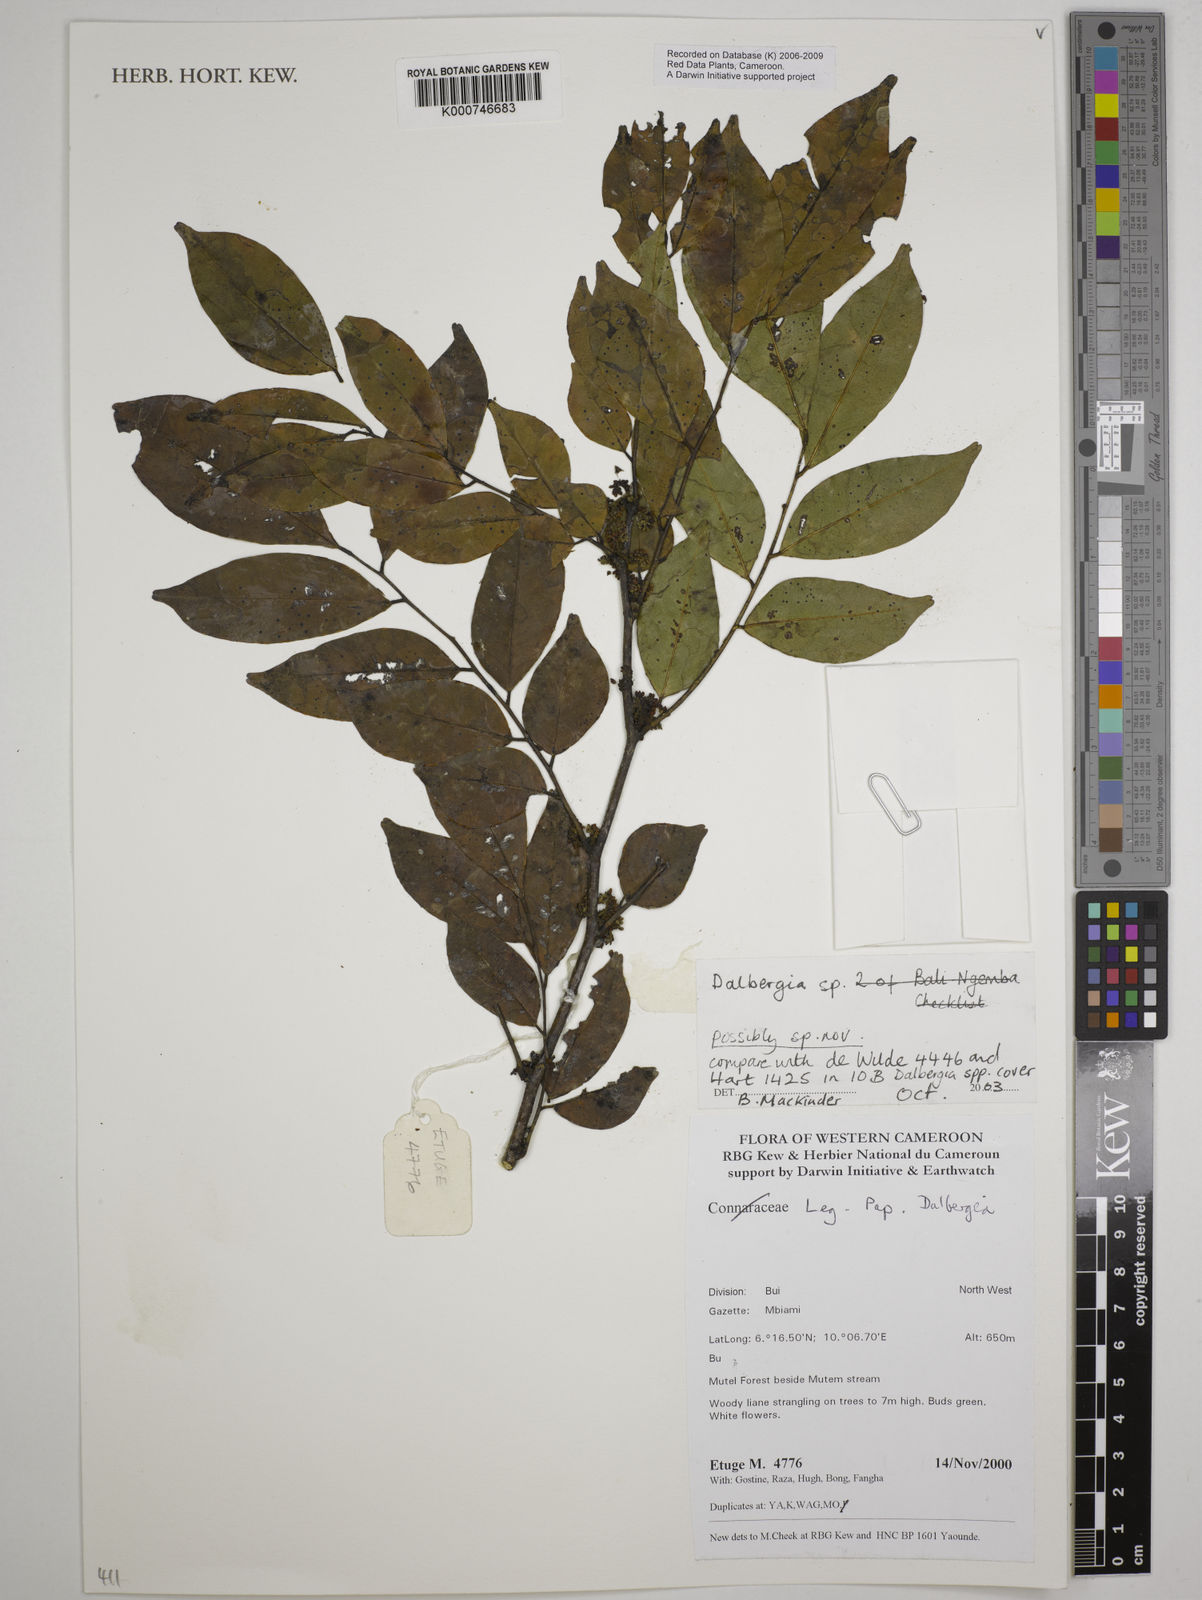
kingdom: Plantae
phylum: Tracheophyta
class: Magnoliopsida
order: Fabales
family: Fabaceae
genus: Dalbergia
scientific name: Dalbergia
